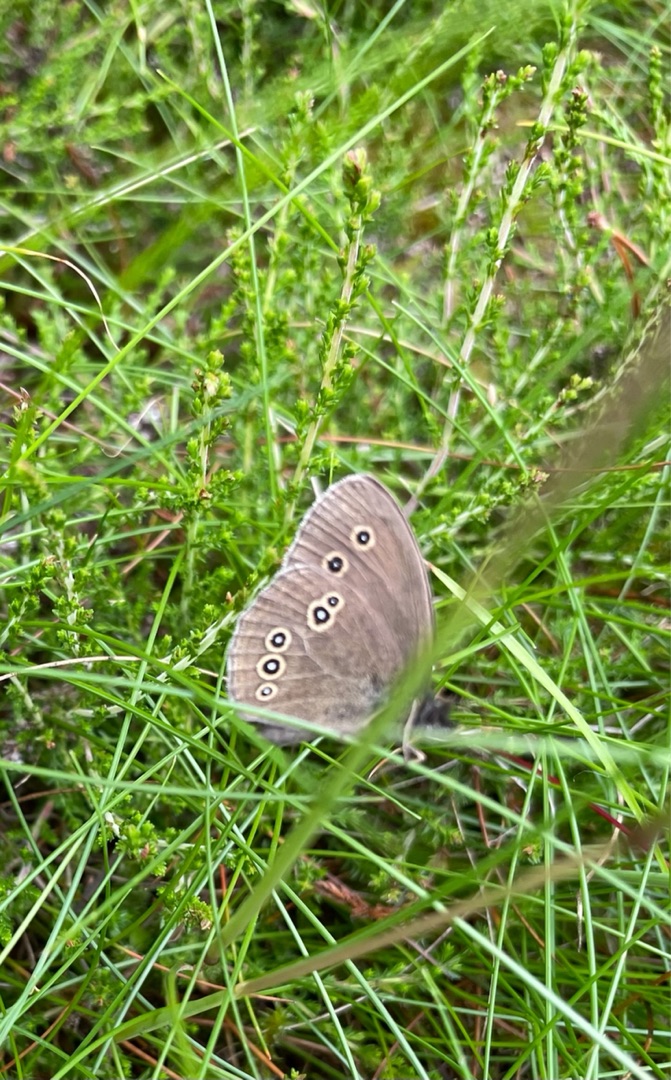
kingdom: Animalia
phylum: Arthropoda
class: Insecta
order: Lepidoptera
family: Nymphalidae
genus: Aphantopus
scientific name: Aphantopus hyperantus
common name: Engrandøje
